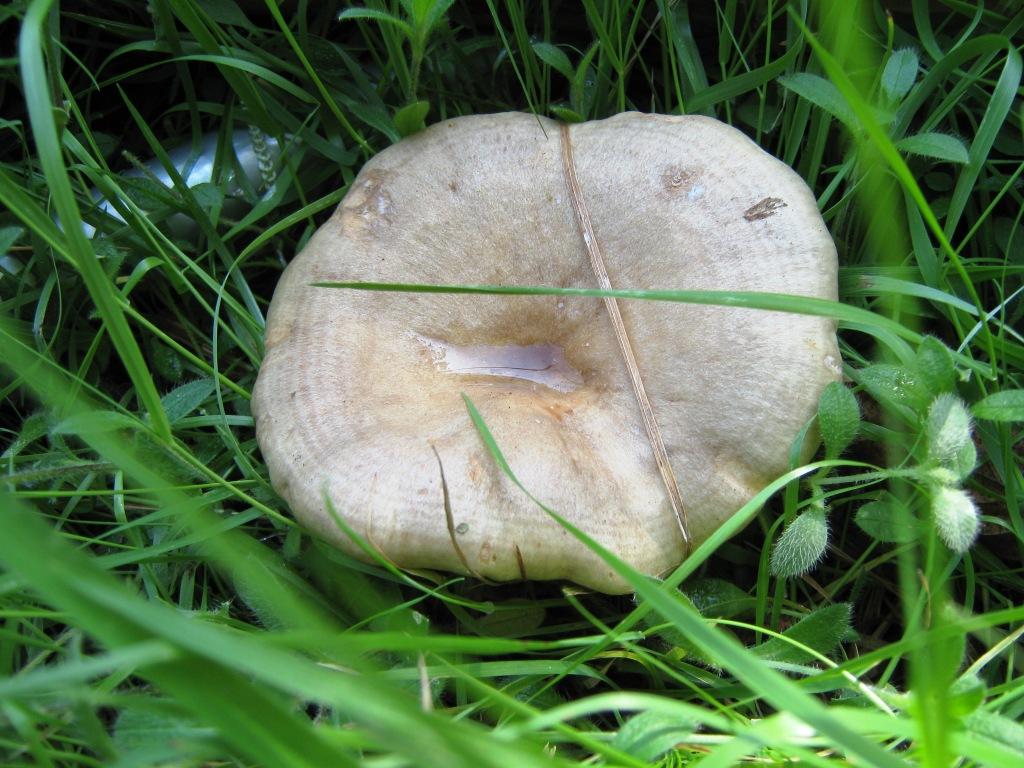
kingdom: Fungi
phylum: Basidiomycota
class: Agaricomycetes
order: Russulales
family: Russulaceae
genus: Lactarius
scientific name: Lactarius pyrogalus
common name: hassel-mælkehat
